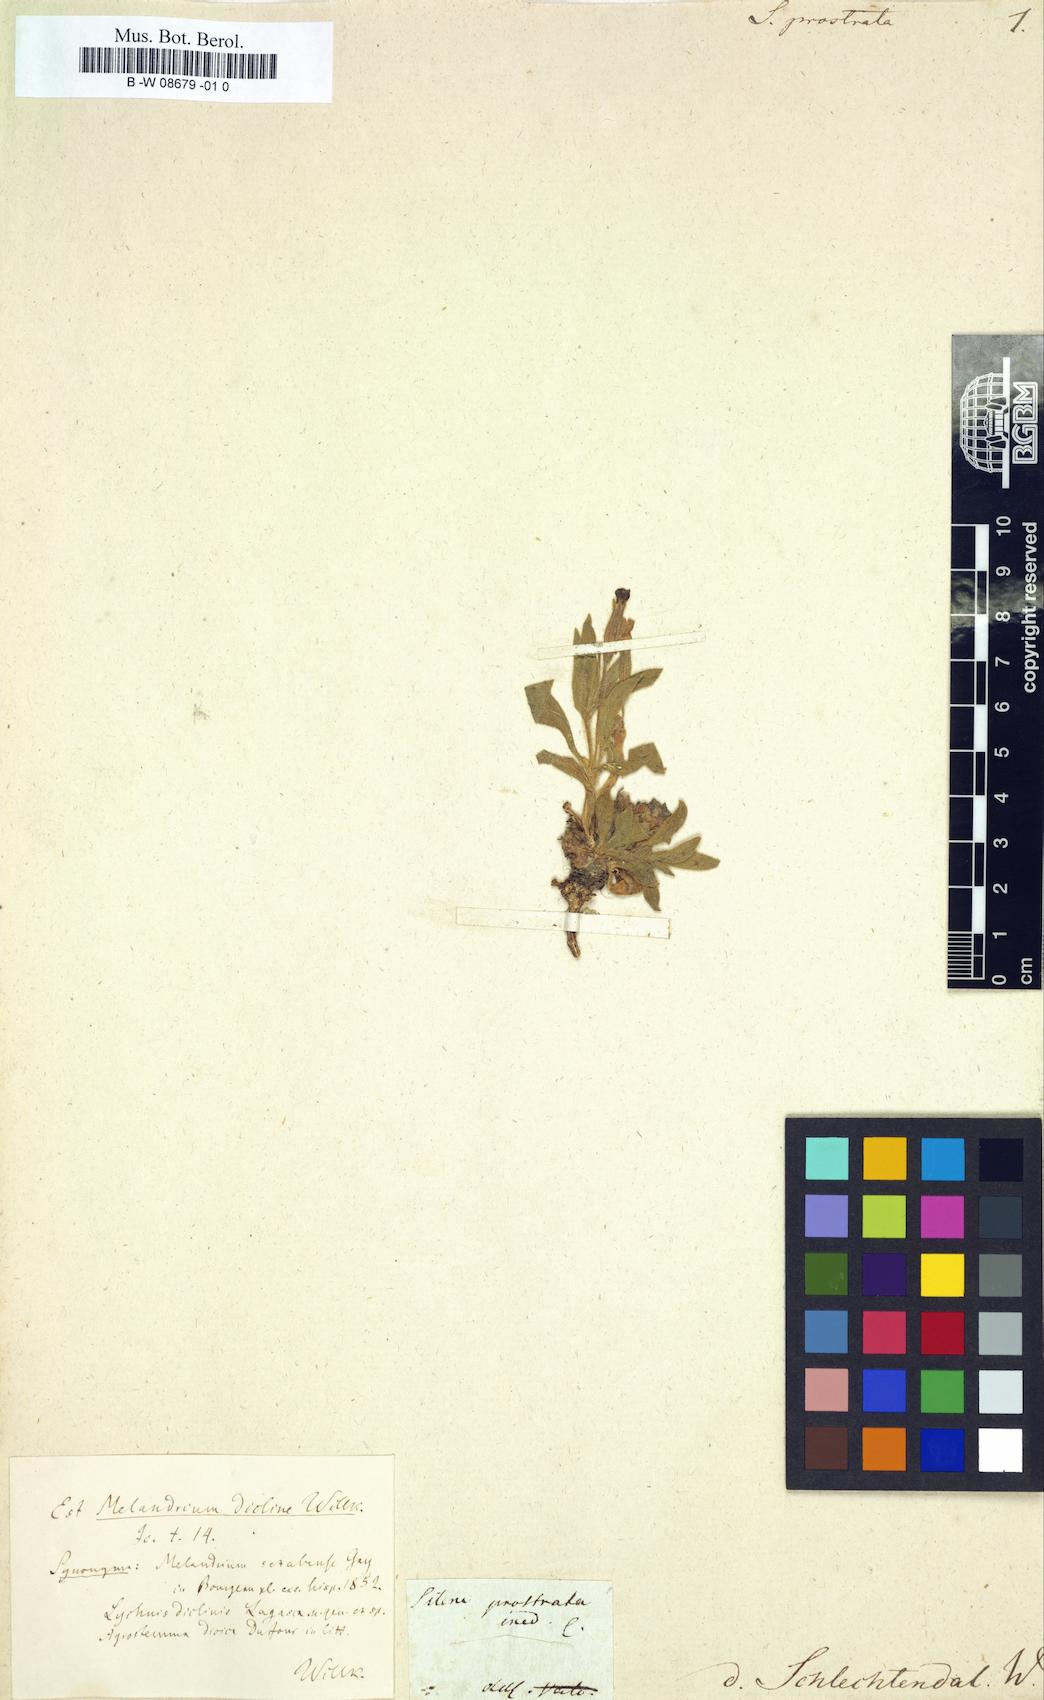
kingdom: Plantae
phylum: Tracheophyta
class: Magnoliopsida
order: Caryophyllales
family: Caryophyllaceae
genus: Silene
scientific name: Silene littorea
